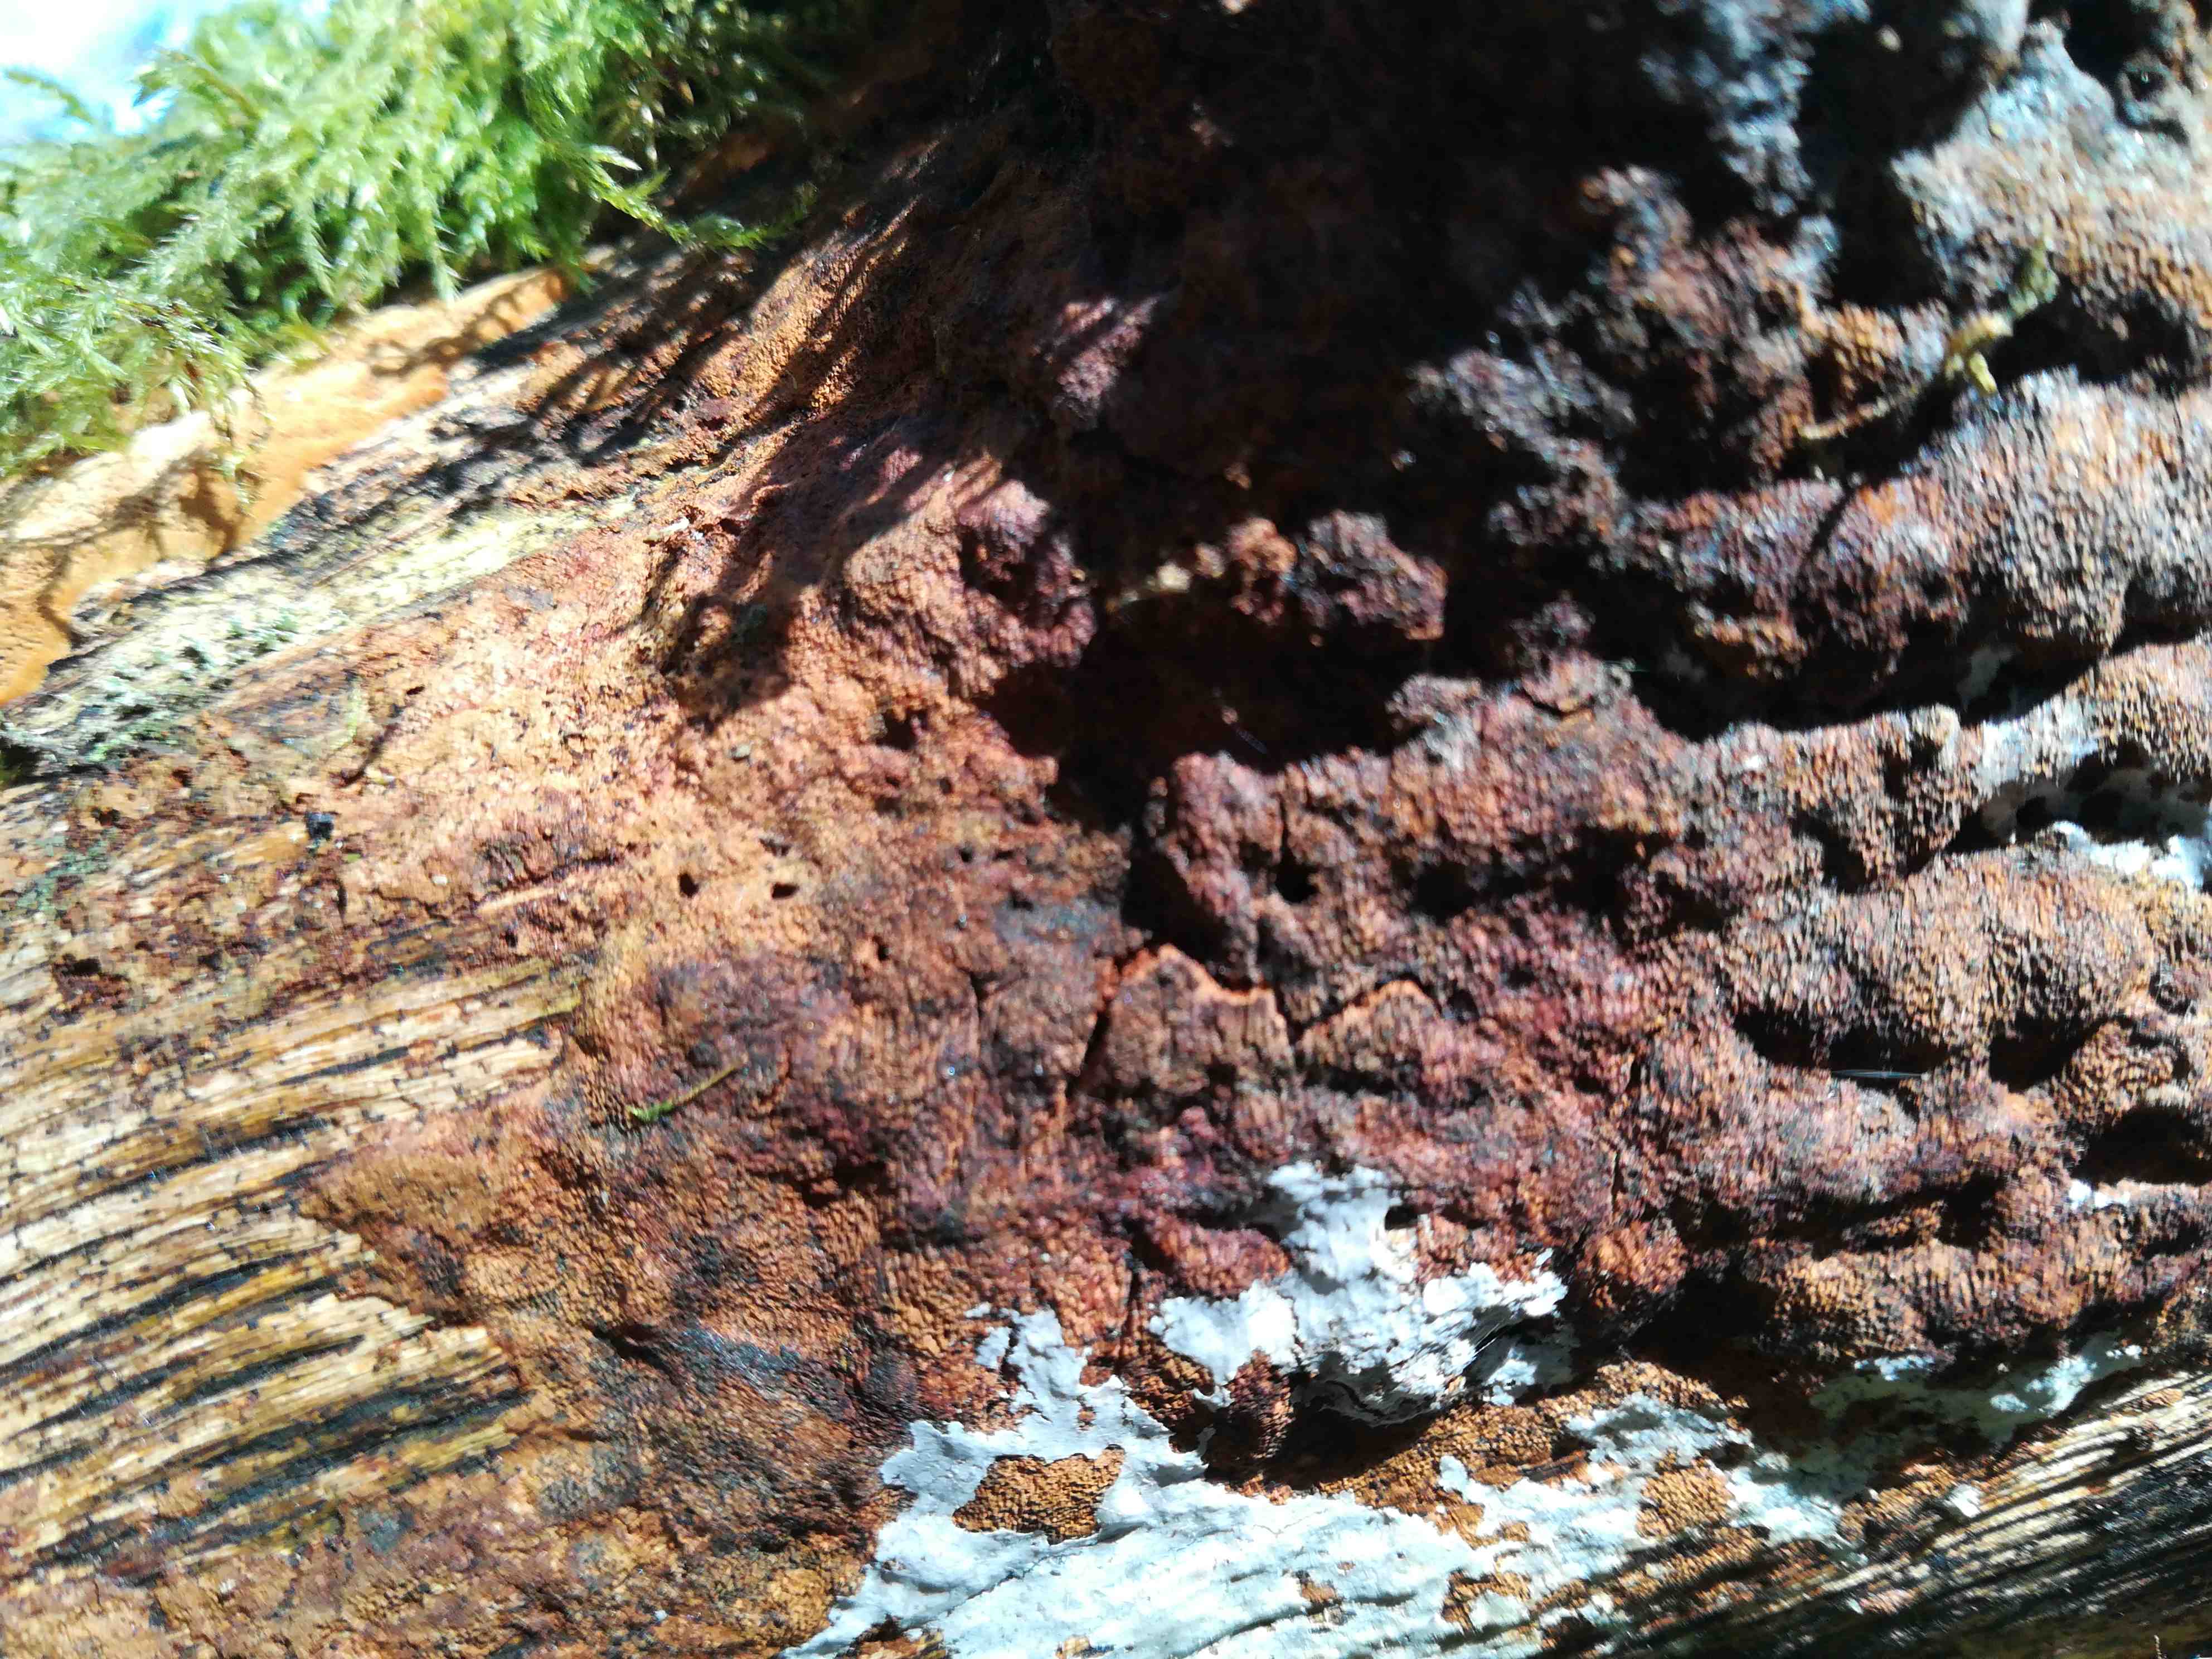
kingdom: Fungi
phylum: Basidiomycota
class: Agaricomycetes
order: Hymenochaetales
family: Hymenochaetaceae
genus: Fuscoporia
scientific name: Fuscoporia
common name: Ildporesvamp
